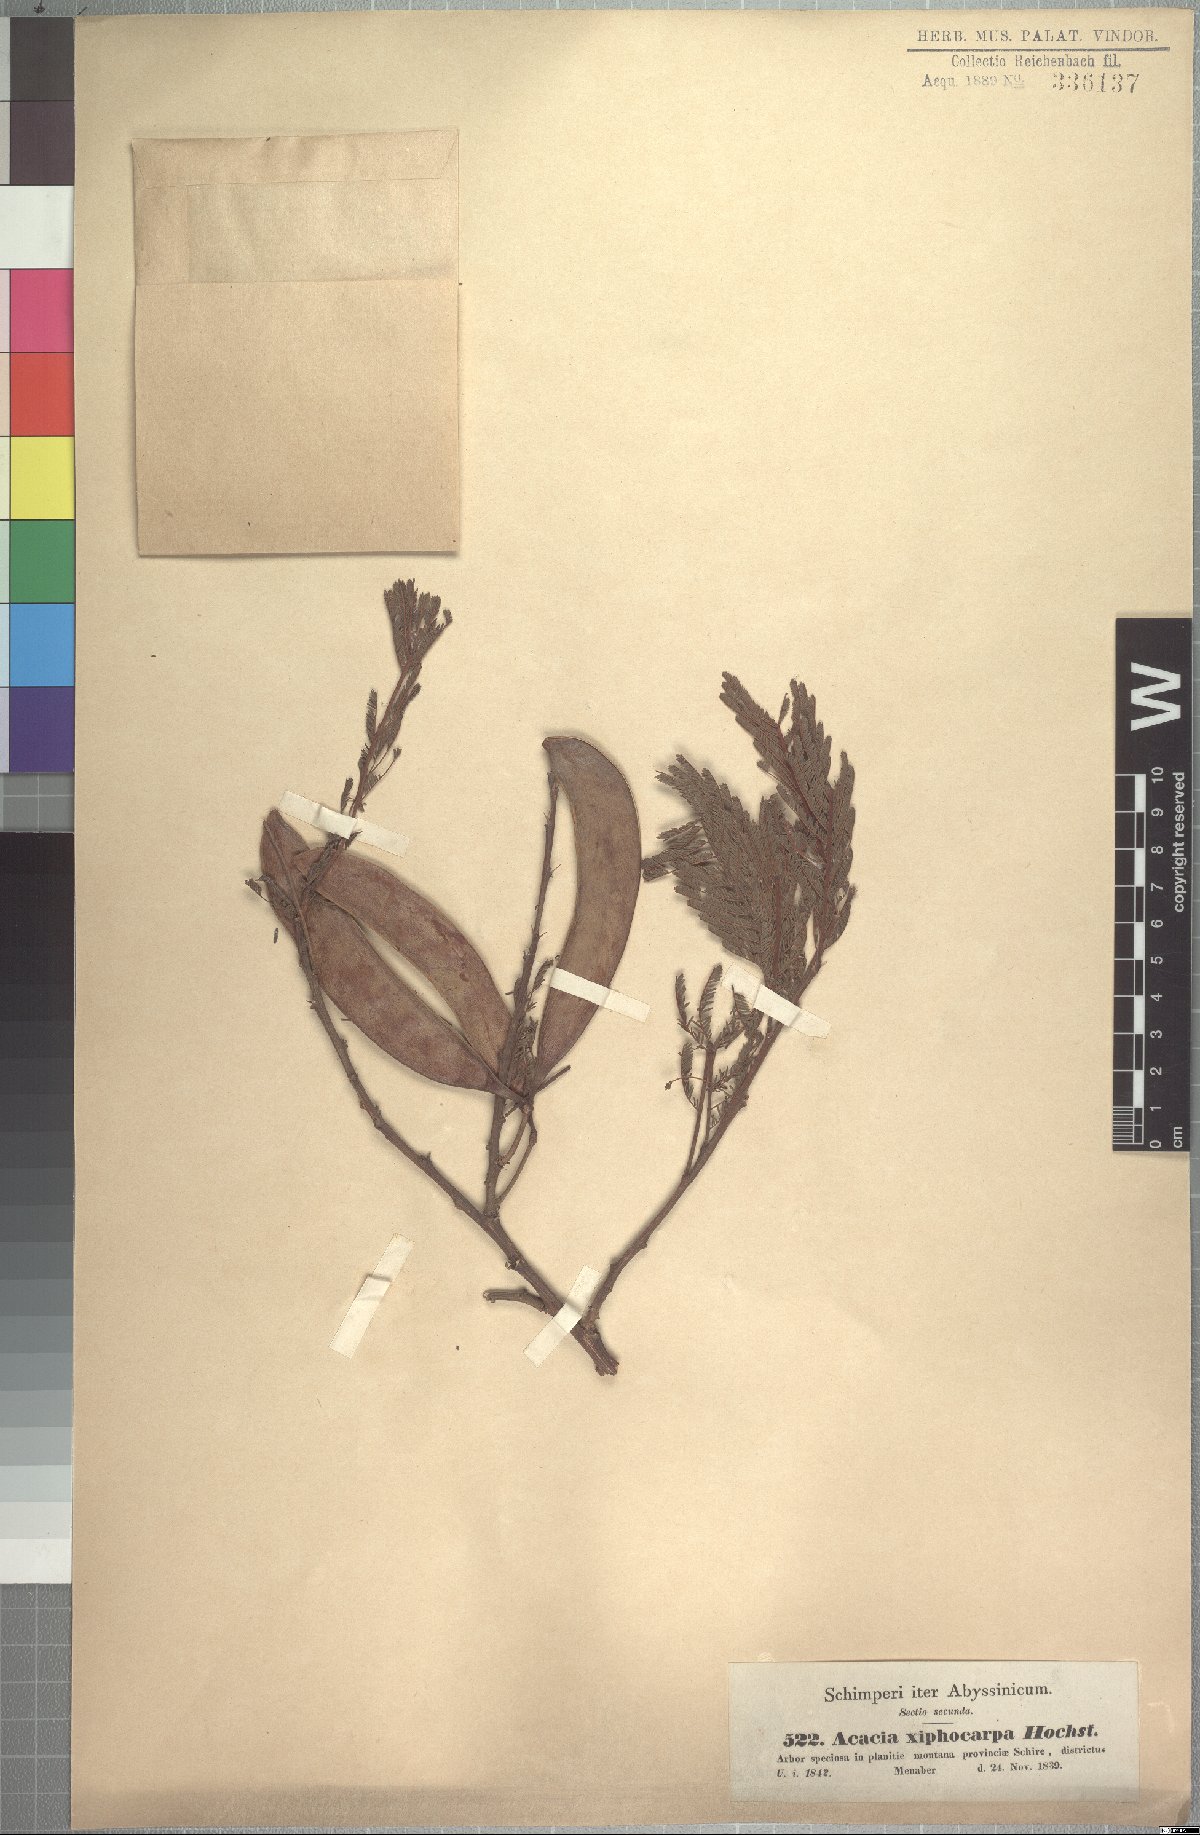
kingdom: Plantae
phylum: Tracheophyta
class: Magnoliopsida
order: Fabales
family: Fabaceae
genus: Vachellia
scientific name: Vachellia abyssinica
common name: Nyanga flat-top
